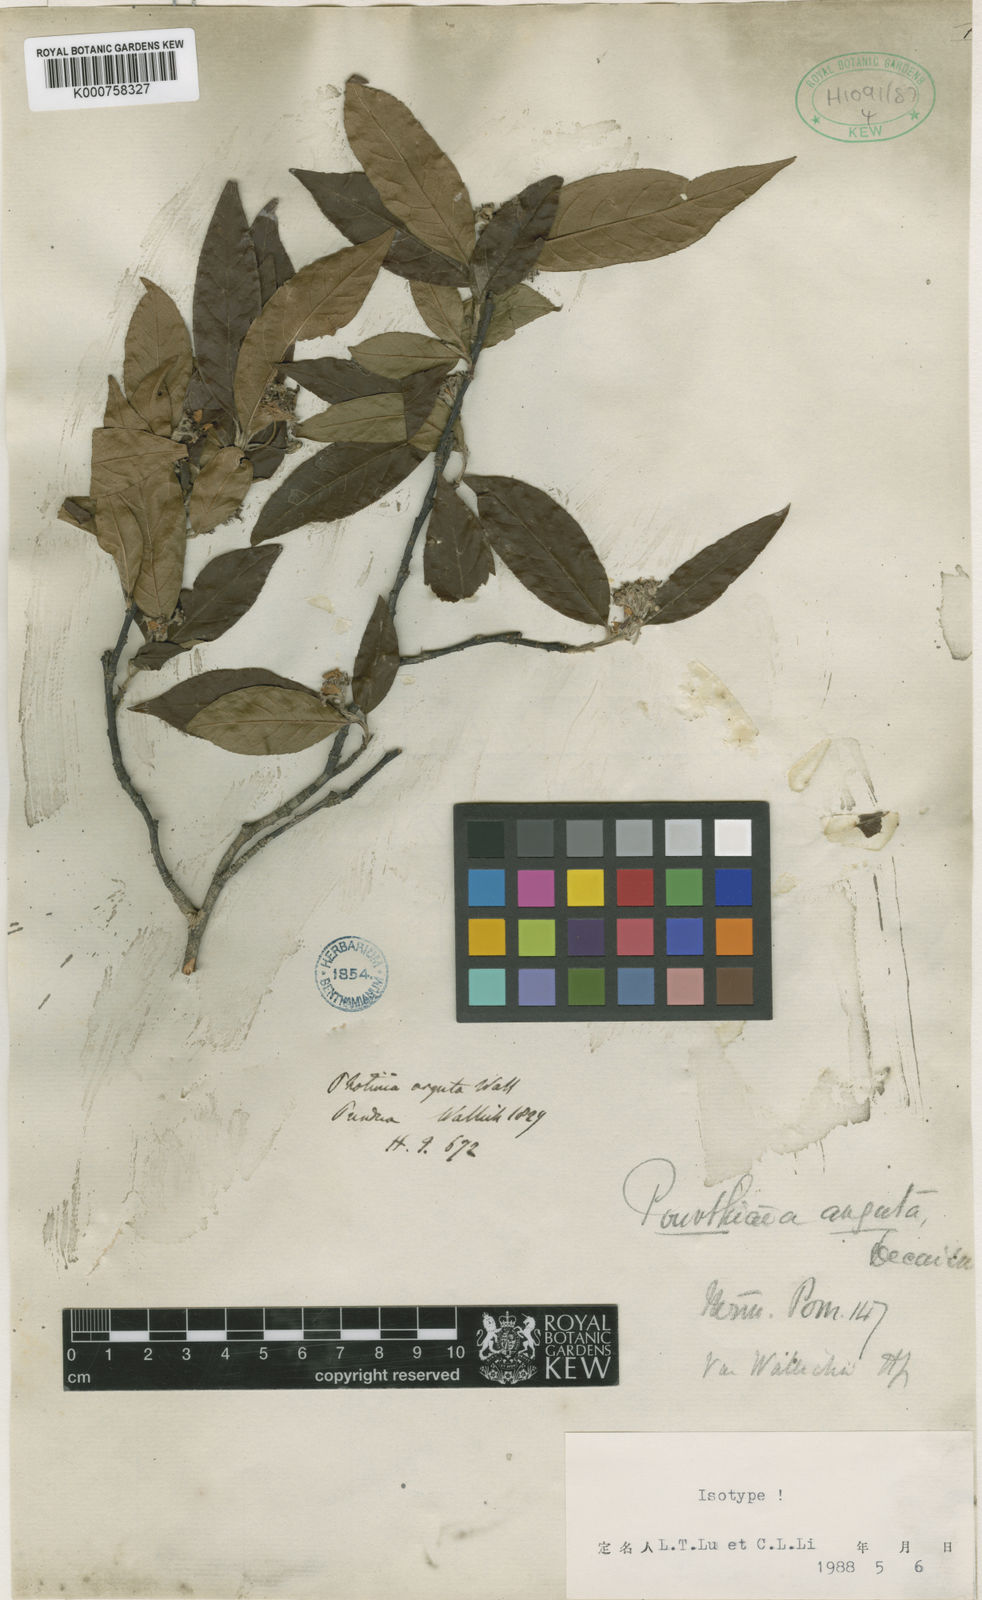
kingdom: Plantae
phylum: Tracheophyta
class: Magnoliopsida
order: Rosales
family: Rosaceae
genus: Photinia
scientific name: Photinia
